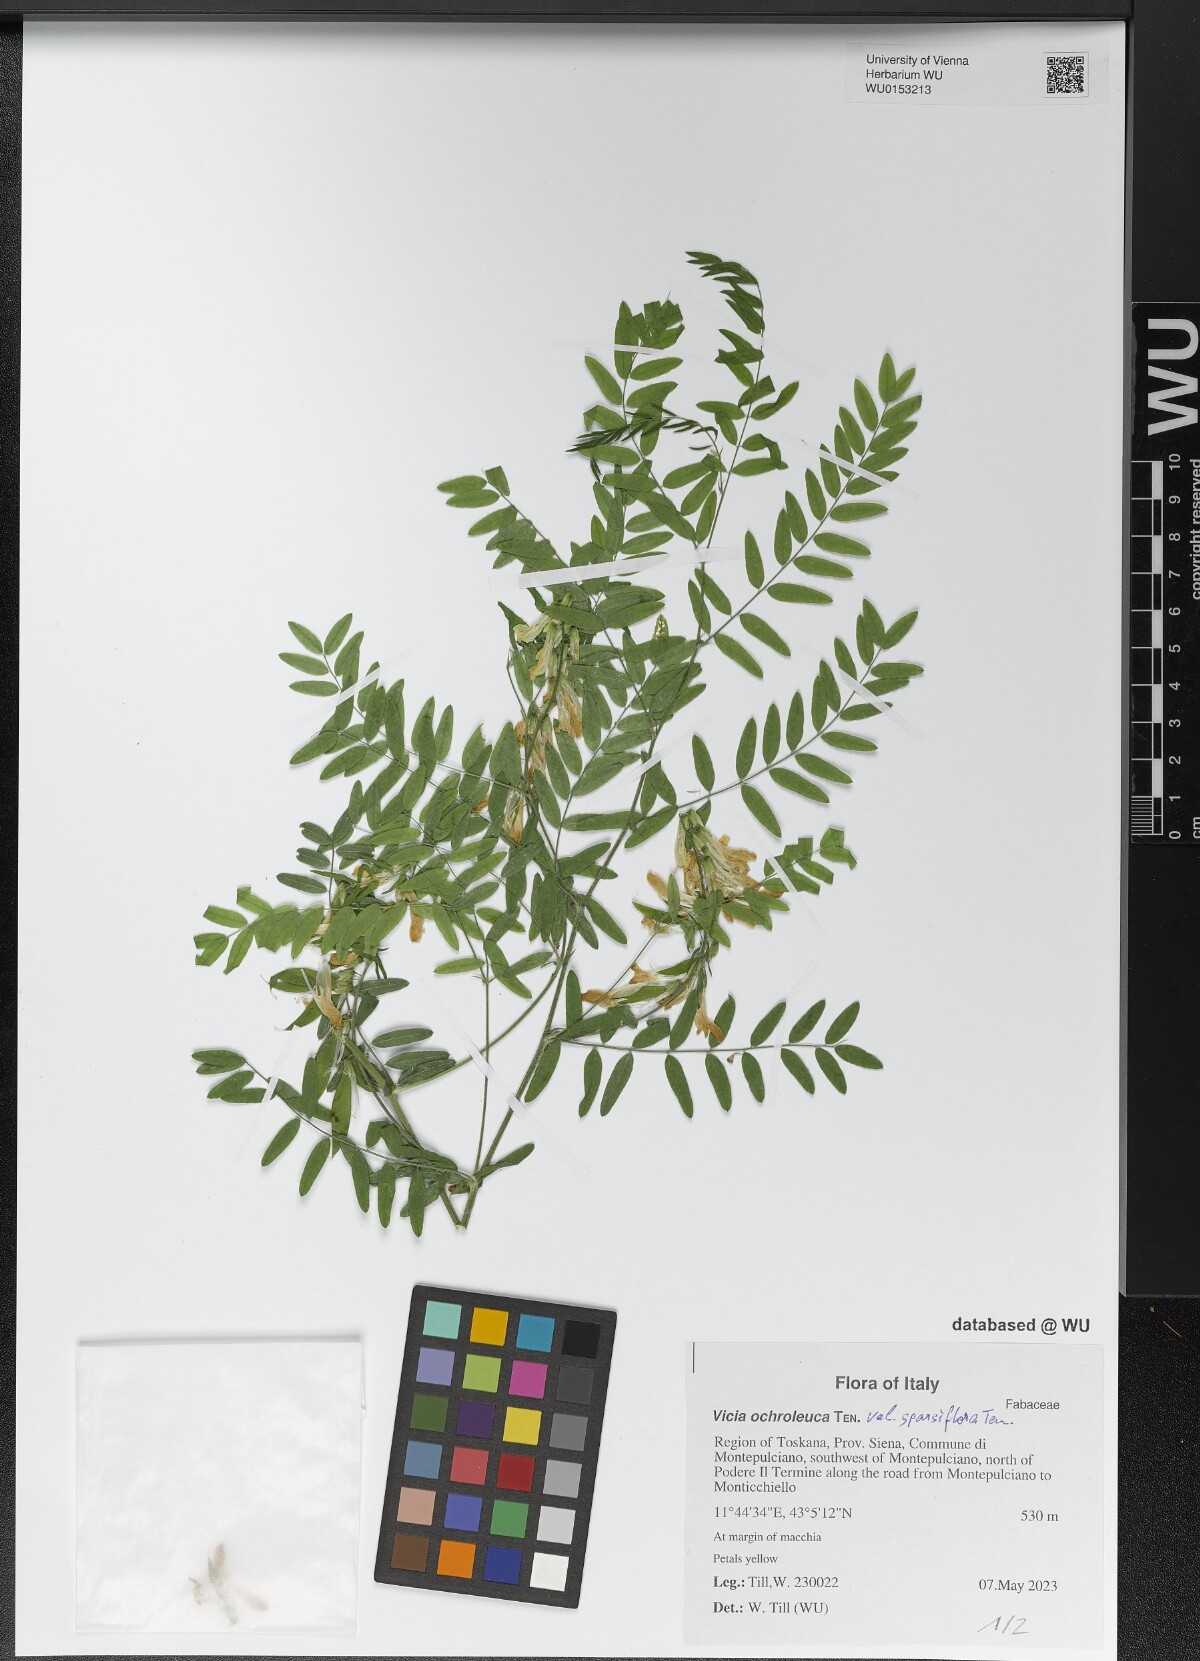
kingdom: Plantae
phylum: Tracheophyta
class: Magnoliopsida
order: Fabales
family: Fabaceae
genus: Vicia
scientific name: Vicia ochroleuca
